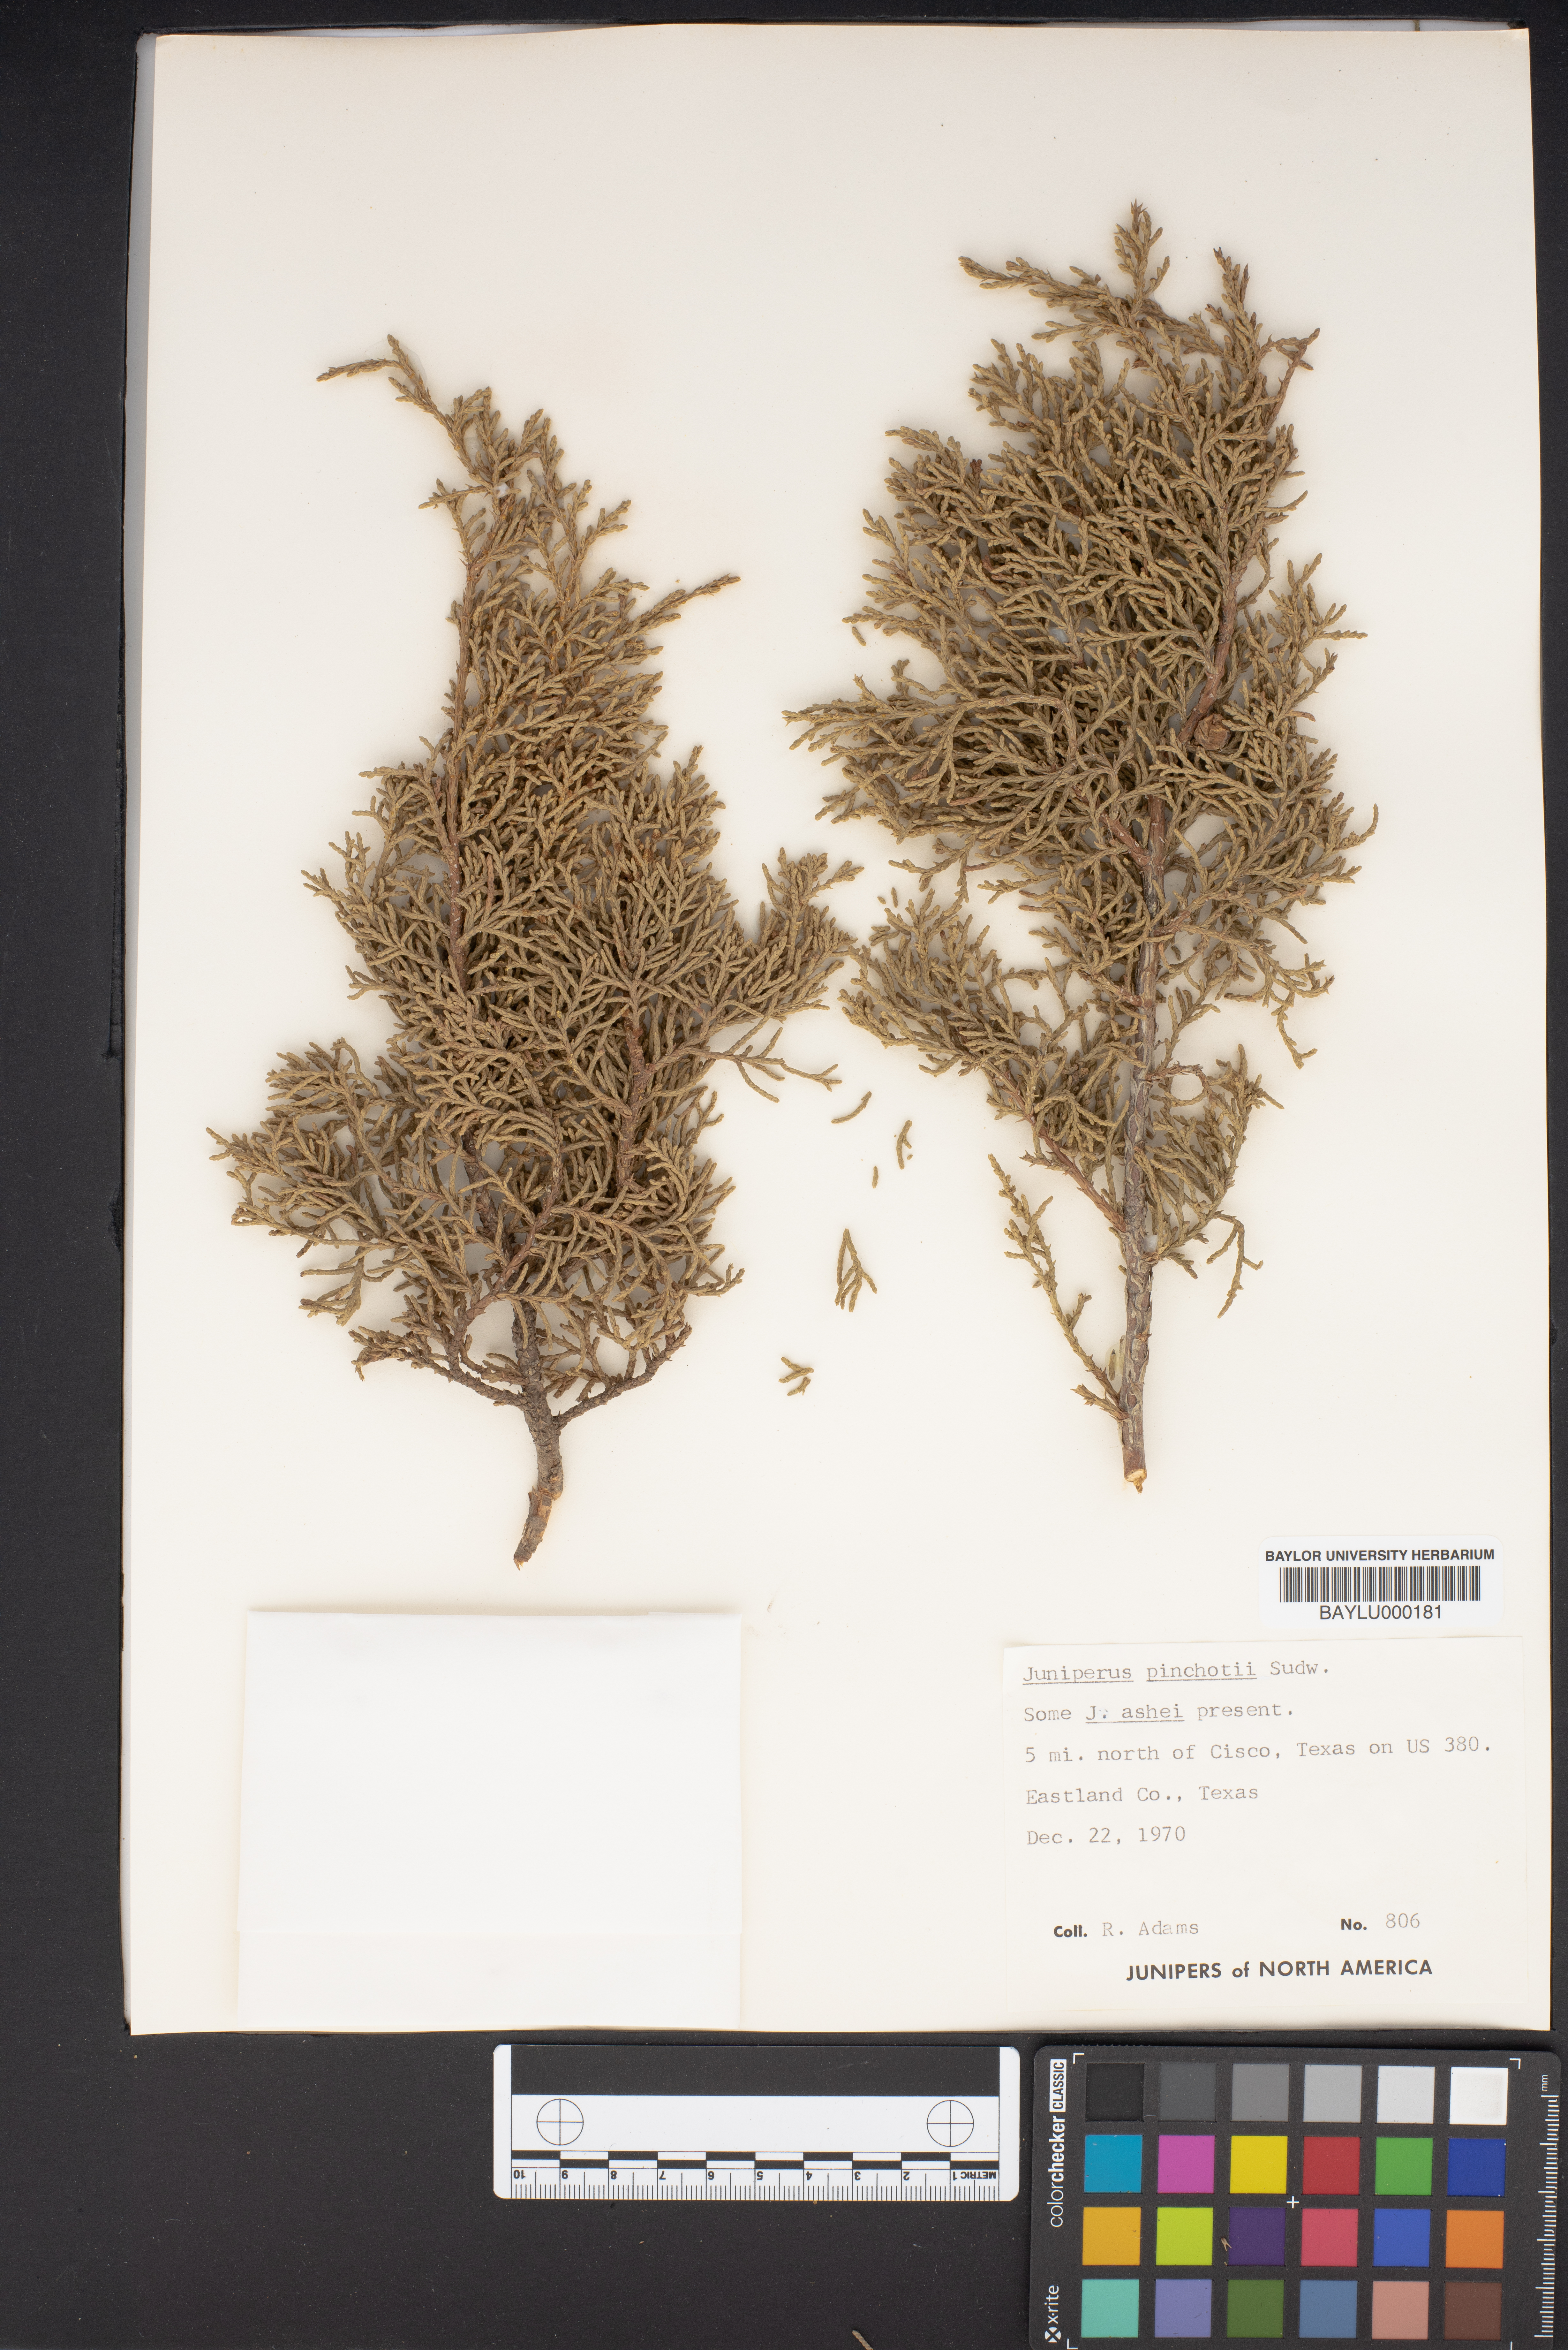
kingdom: Plantae
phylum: Tracheophyta
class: Pinopsida
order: Pinales
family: Cupressaceae
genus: Juniperus
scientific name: Juniperus pinchotii
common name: Pinchot juniper
